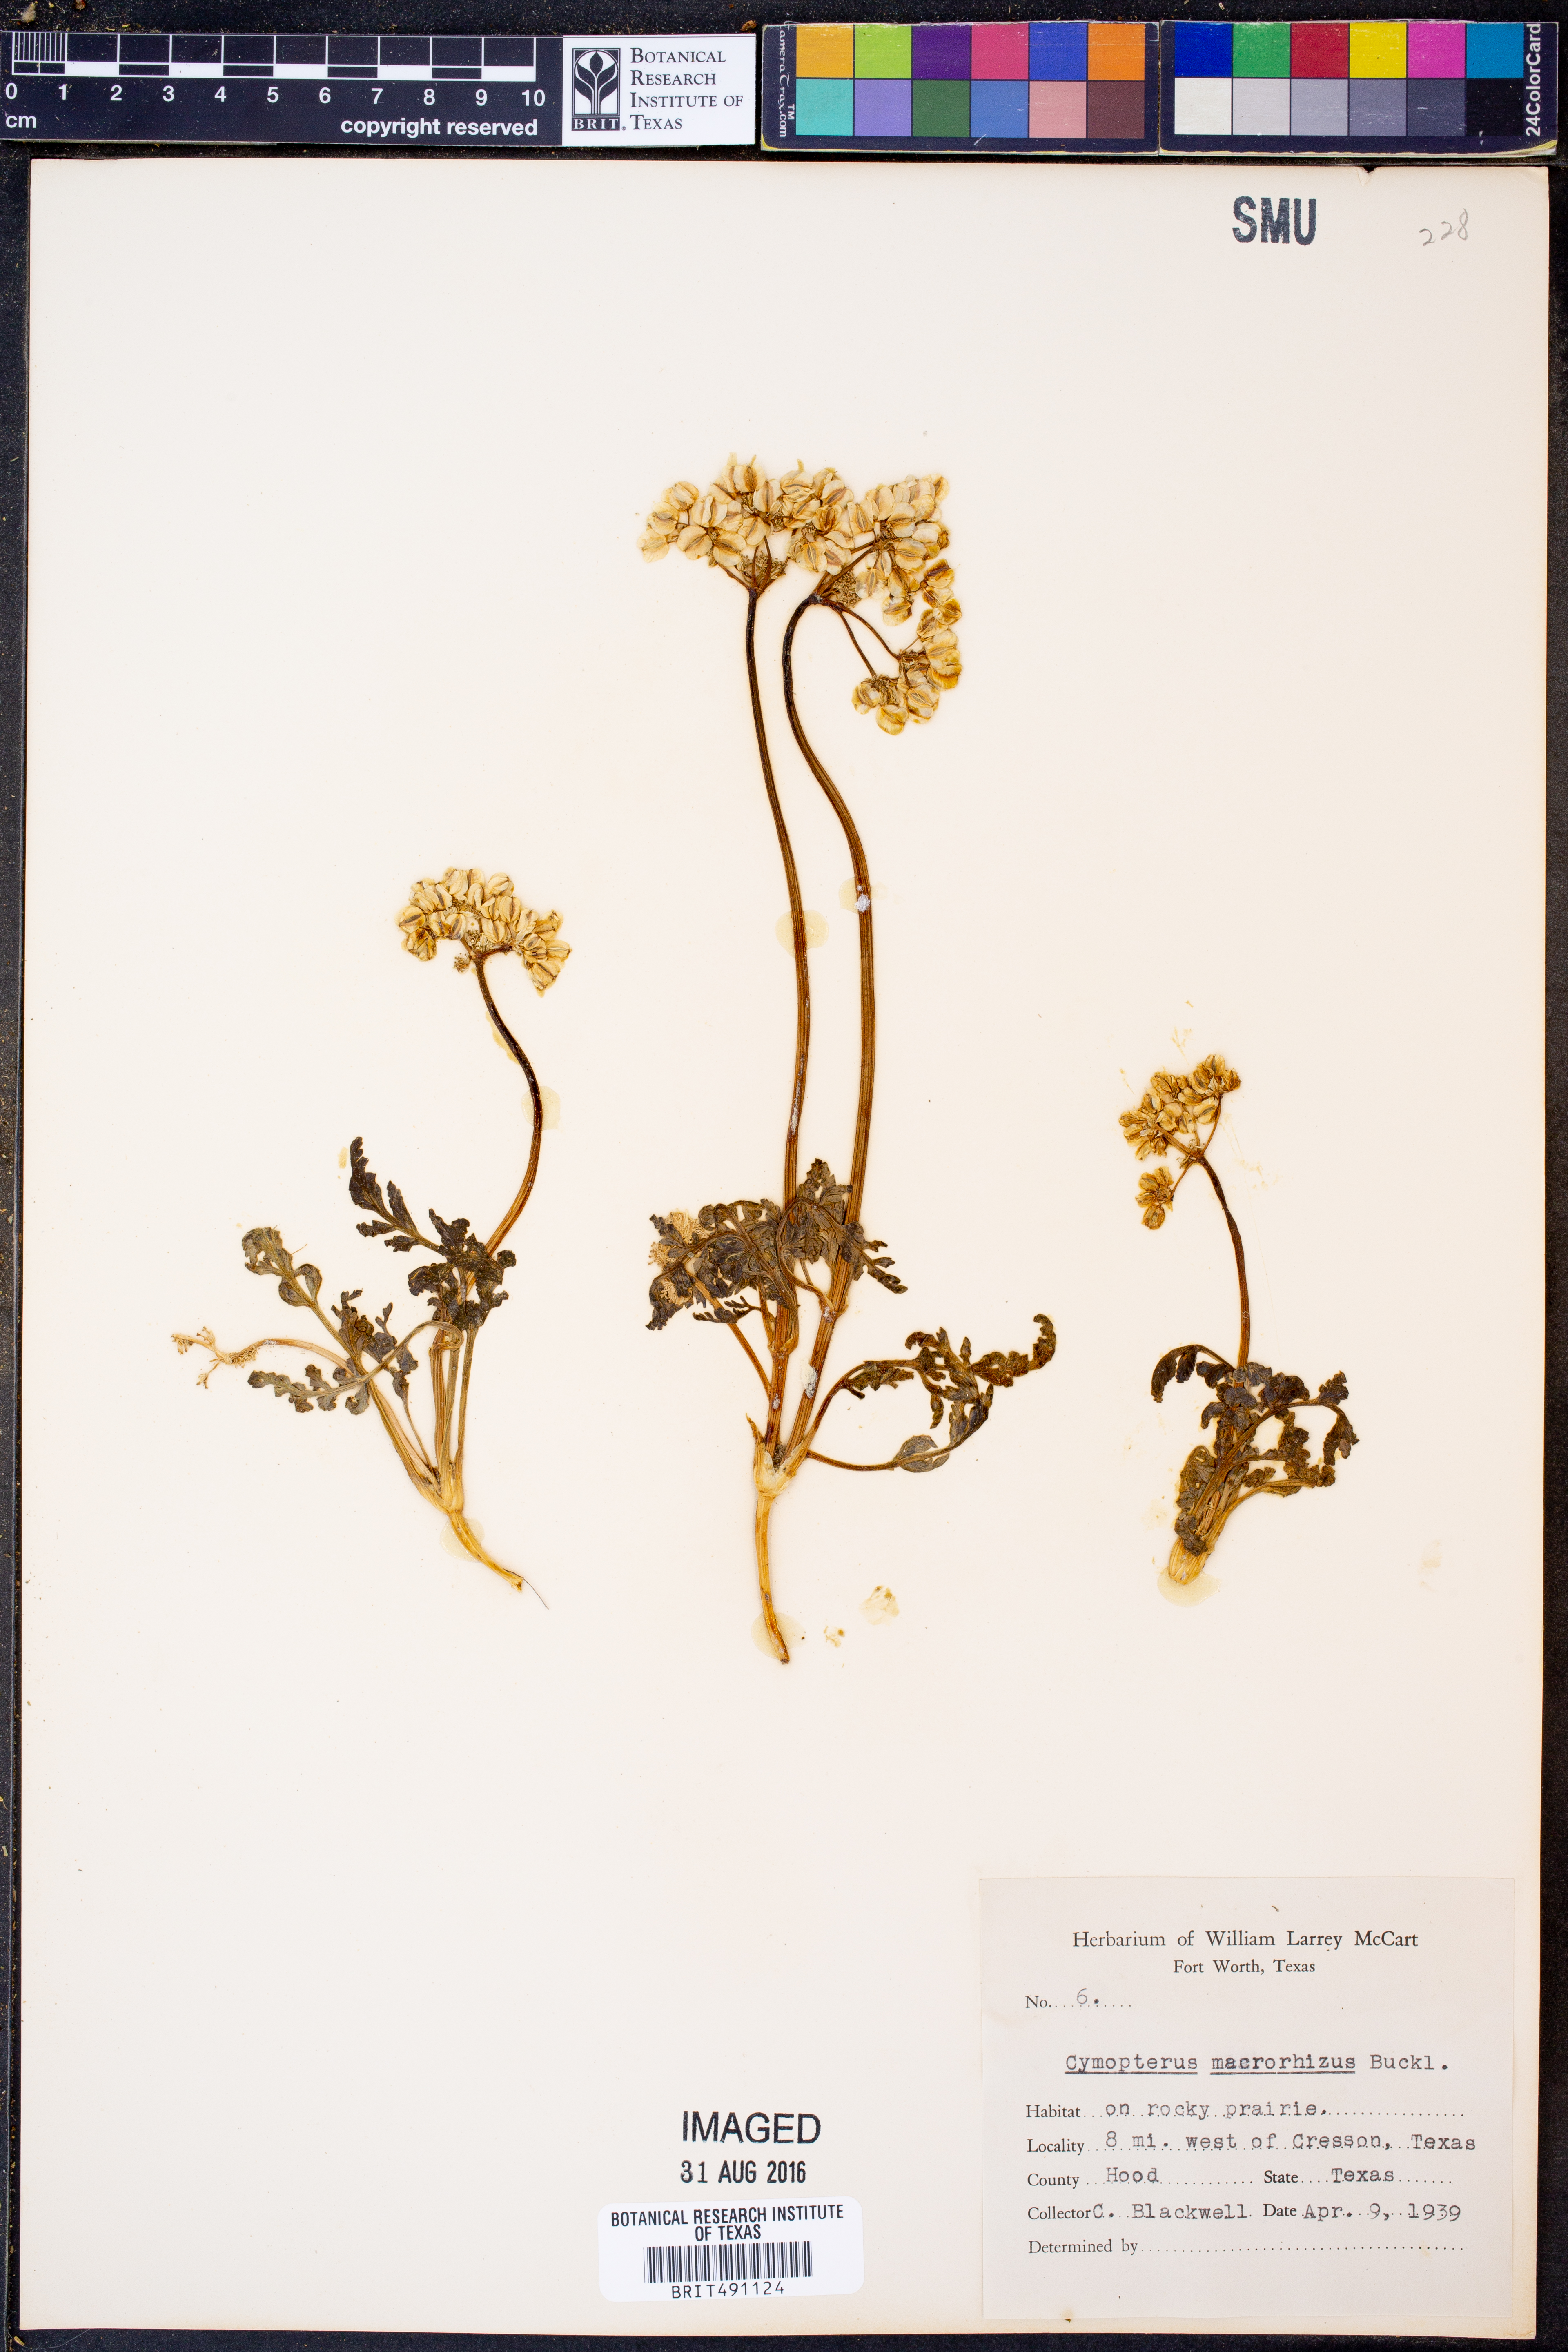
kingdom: Plantae
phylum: Tracheophyta
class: Magnoliopsida
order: Apiales
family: Apiaceae
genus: Vesper
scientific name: Vesper macrorhizus
